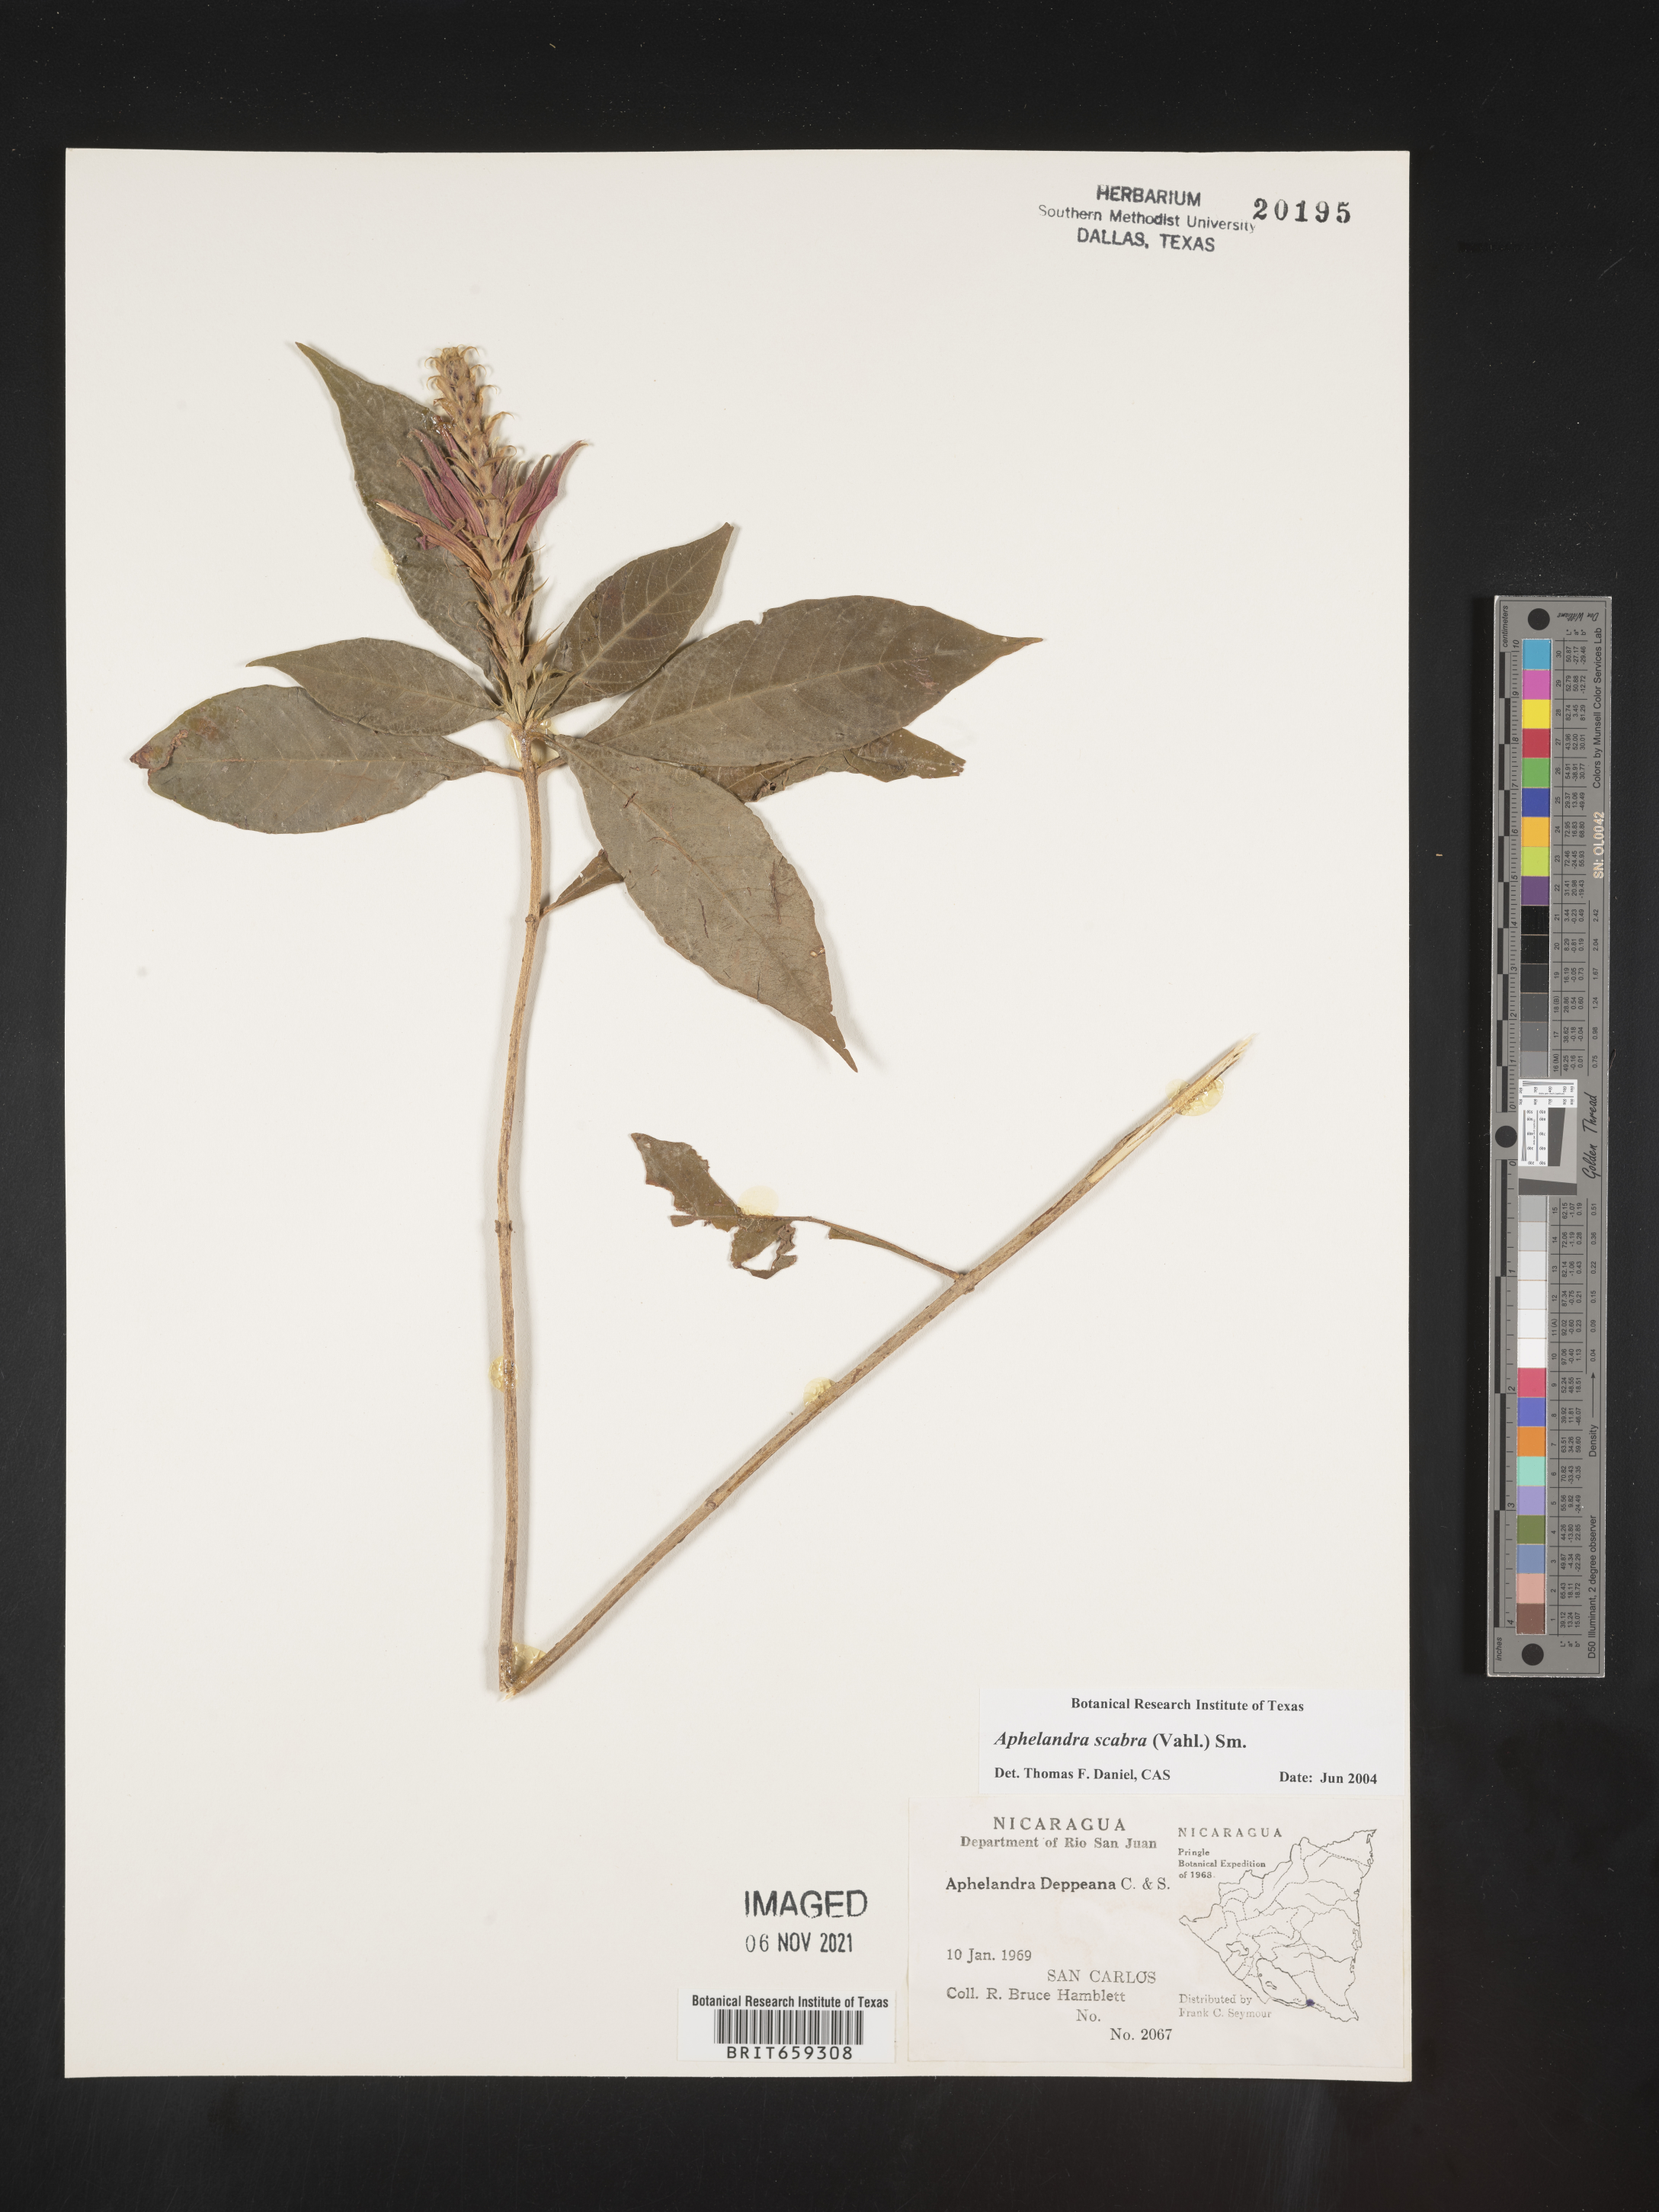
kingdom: Plantae
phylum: Tracheophyta
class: Magnoliopsida
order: Lamiales
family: Acanthaceae
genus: Aphelandra
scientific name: Aphelandra
